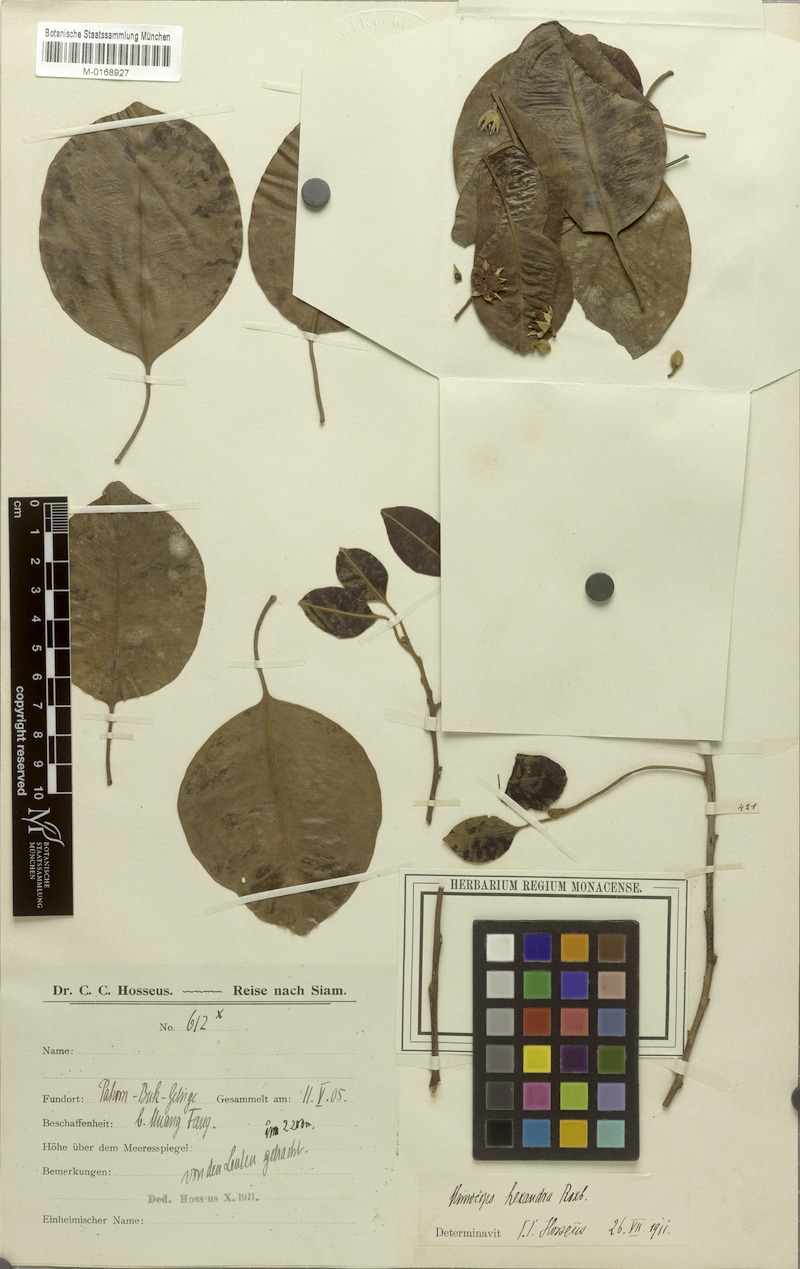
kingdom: Plantae
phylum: Tracheophyta
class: Magnoliopsida
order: Ericales
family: Sapotaceae
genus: Manilkara
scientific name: Manilkara hexandra
